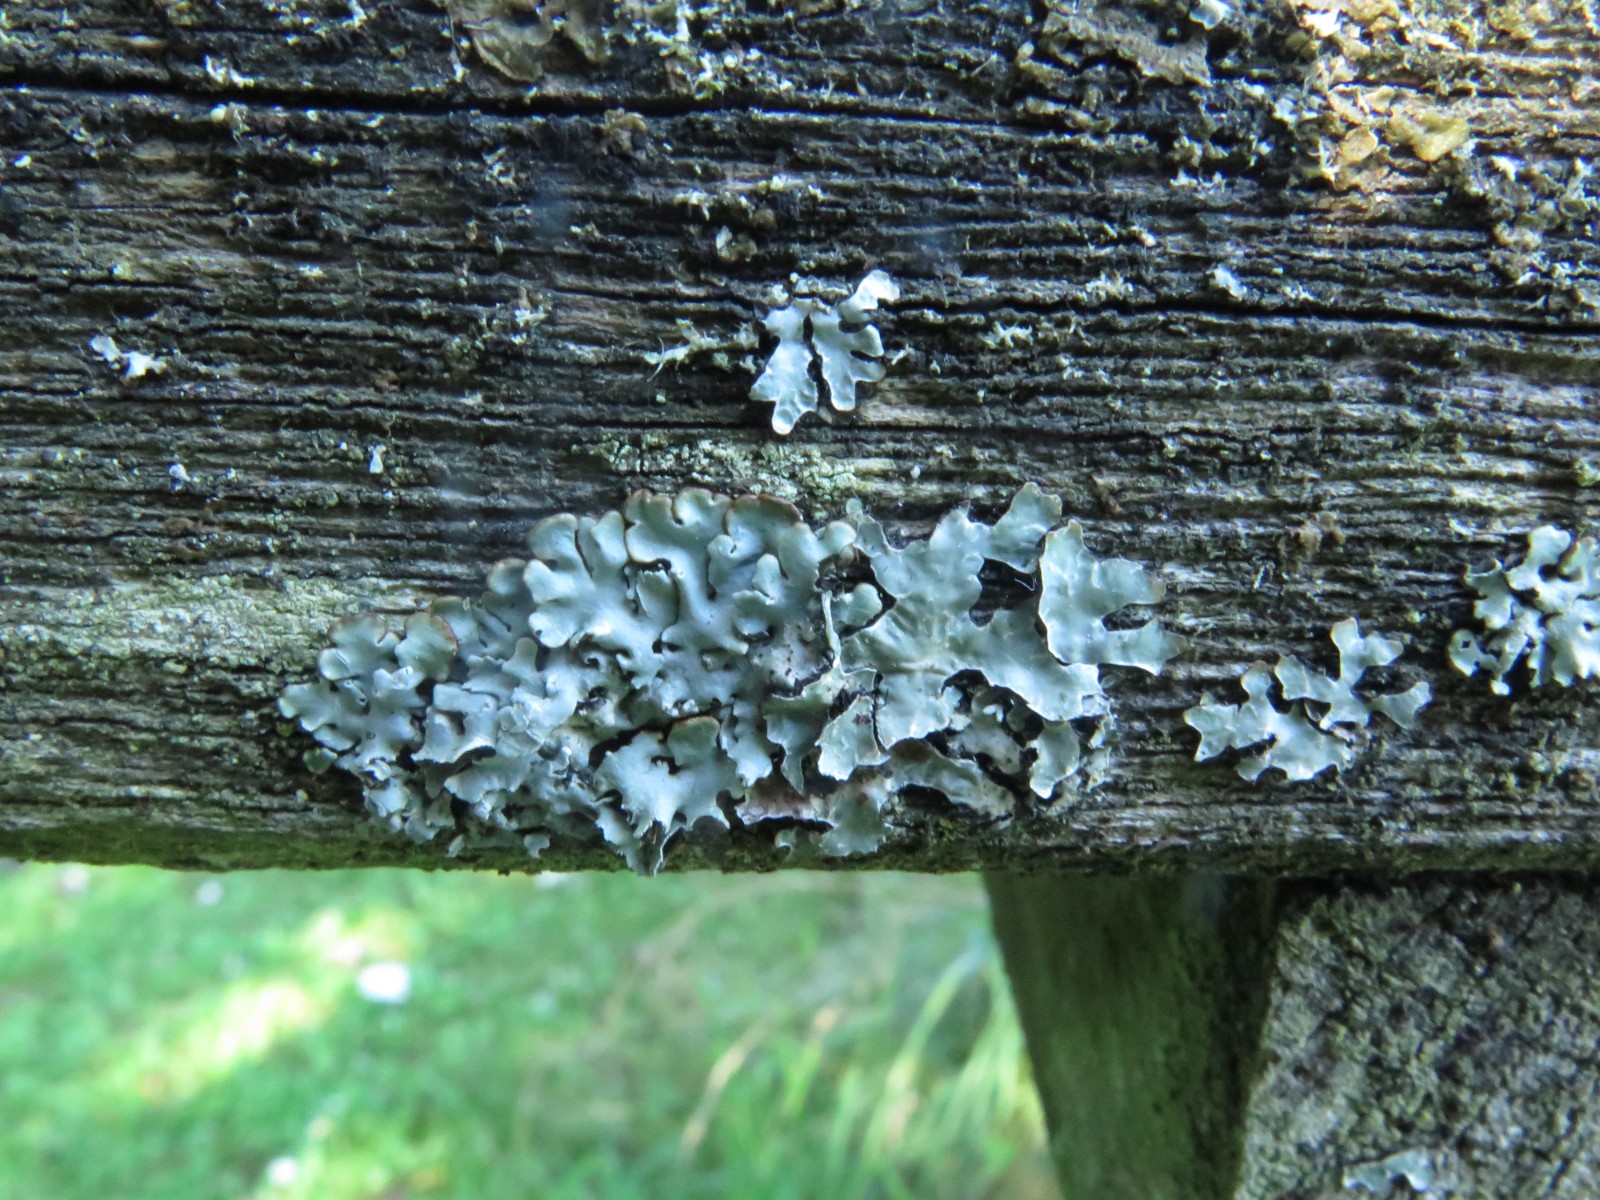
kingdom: Fungi
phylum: Ascomycota
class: Lecanoromycetes
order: Lecanorales
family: Parmeliaceae
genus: Parmelia
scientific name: Parmelia sulcata
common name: rynket skållav
